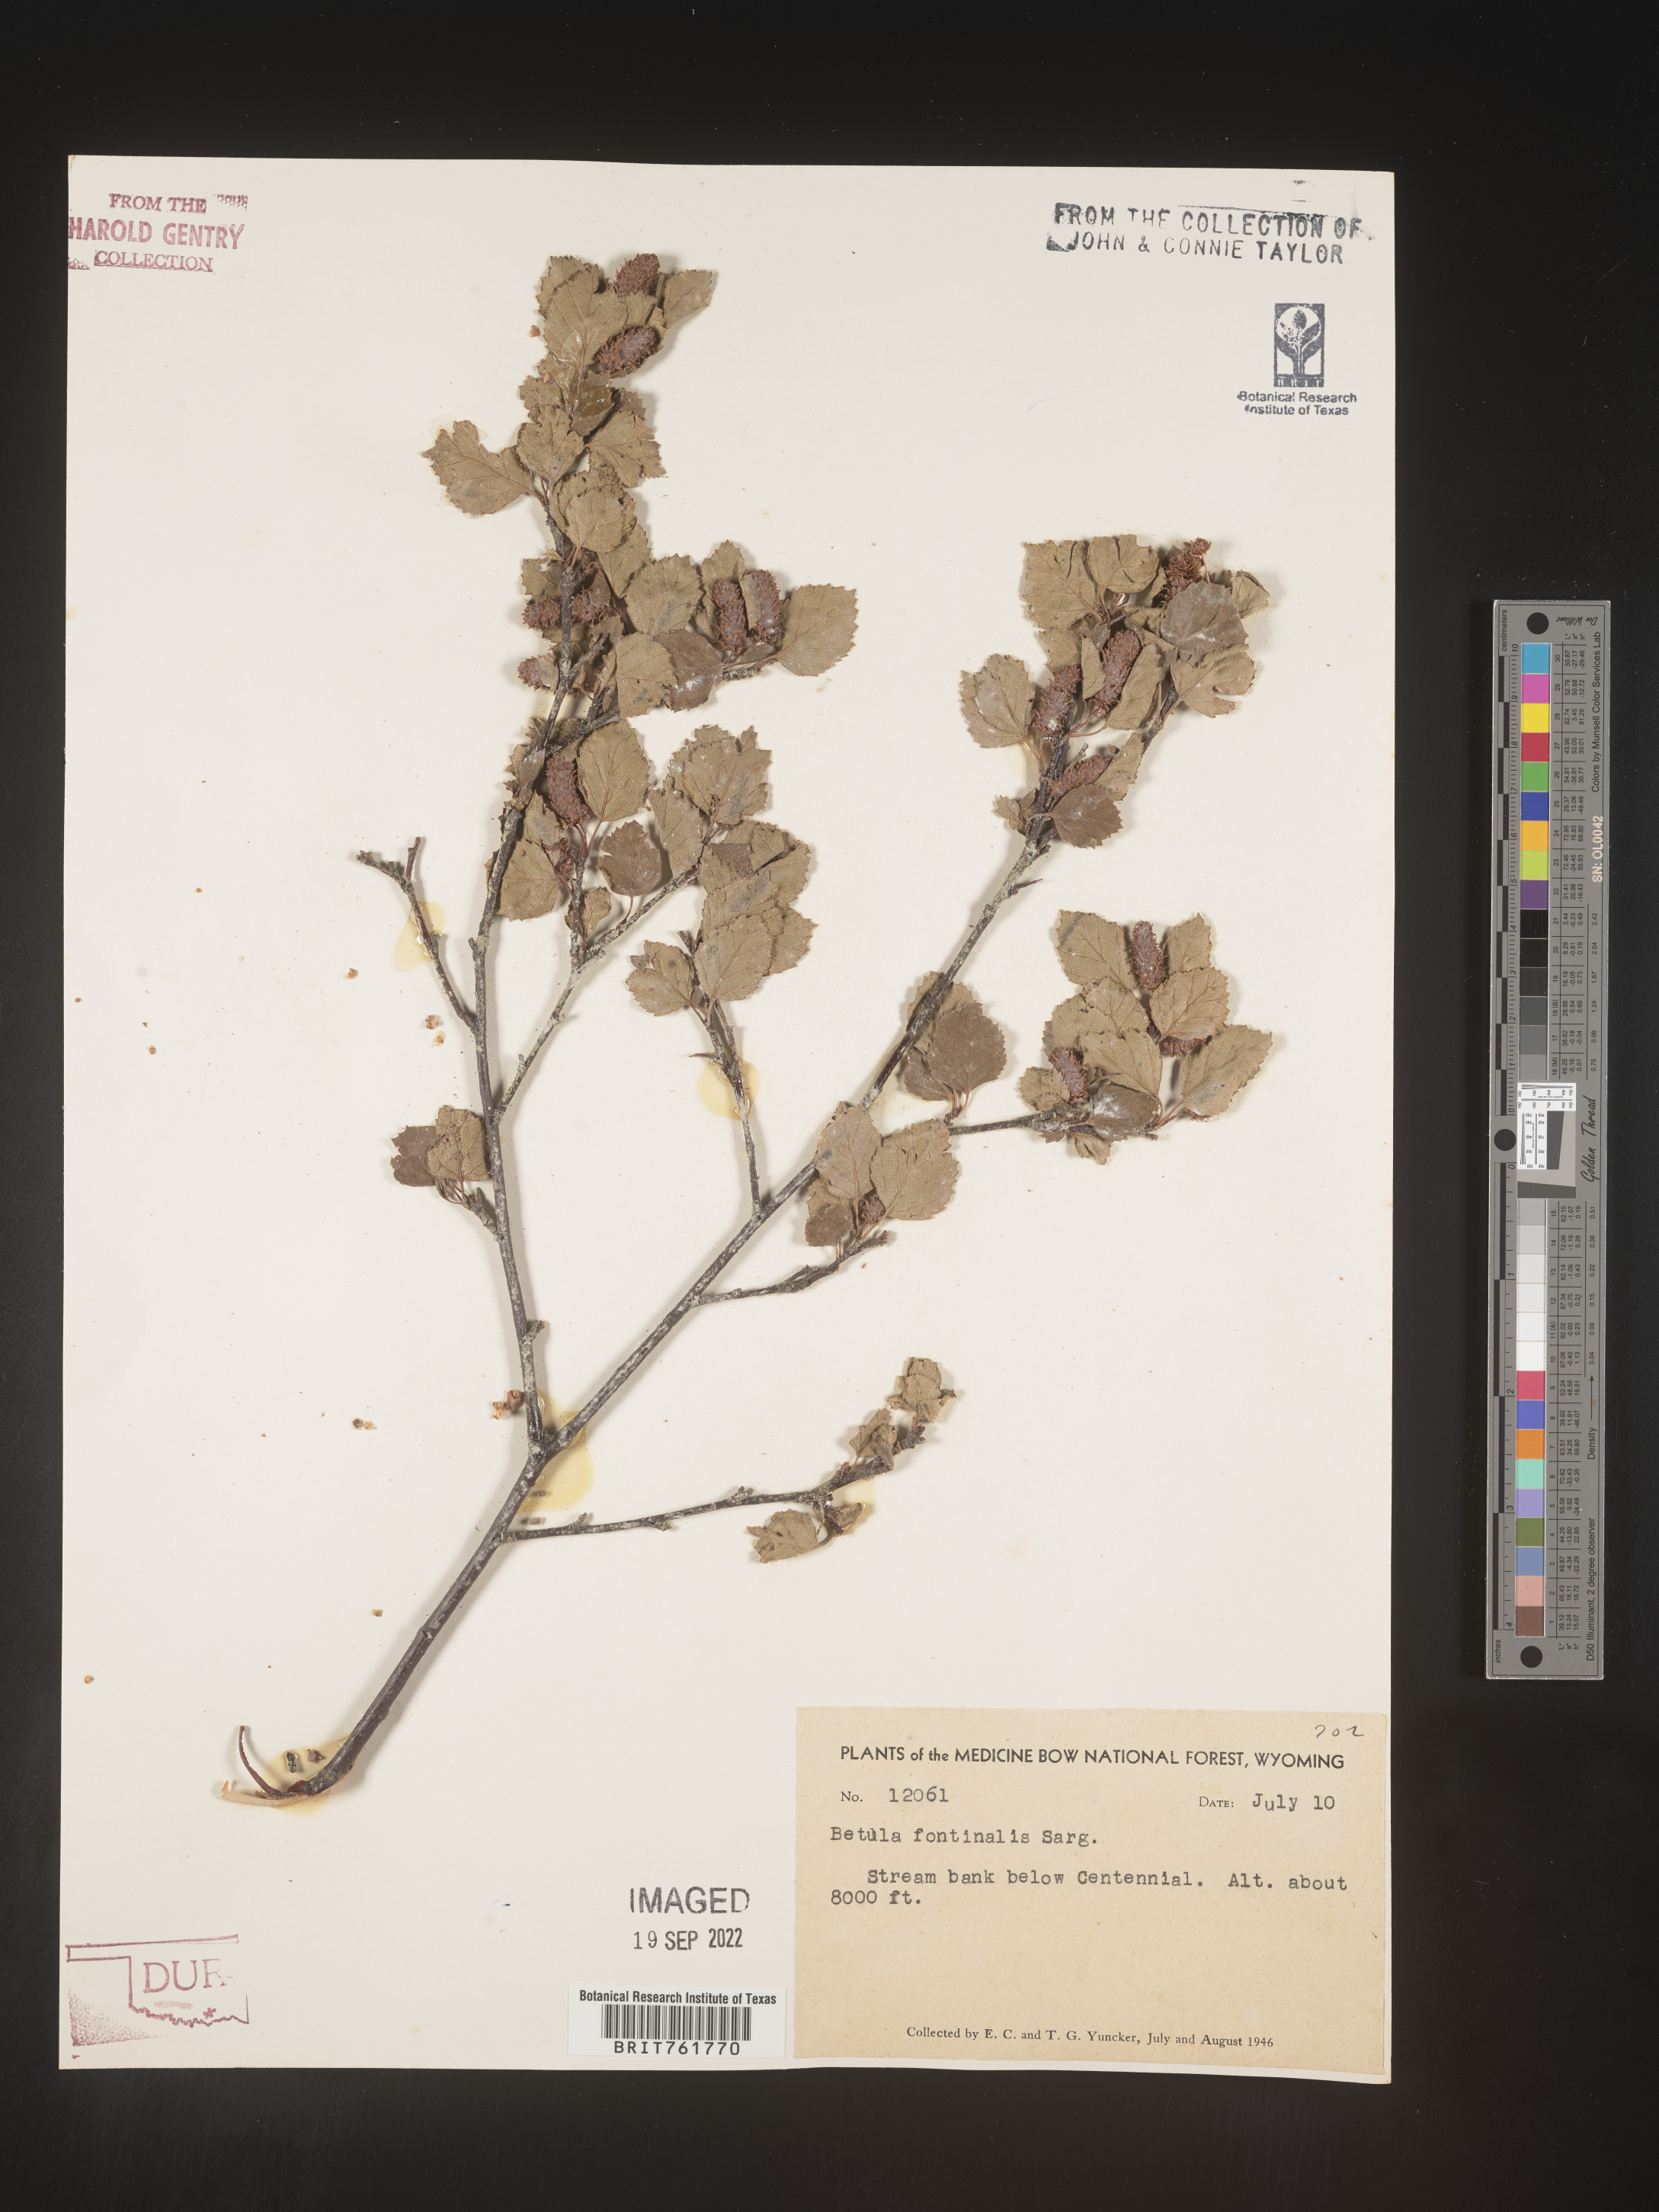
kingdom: Plantae
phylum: Tracheophyta
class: Magnoliopsida
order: Fagales
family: Betulaceae
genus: Betula
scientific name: Betula occidentalis
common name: River birch
